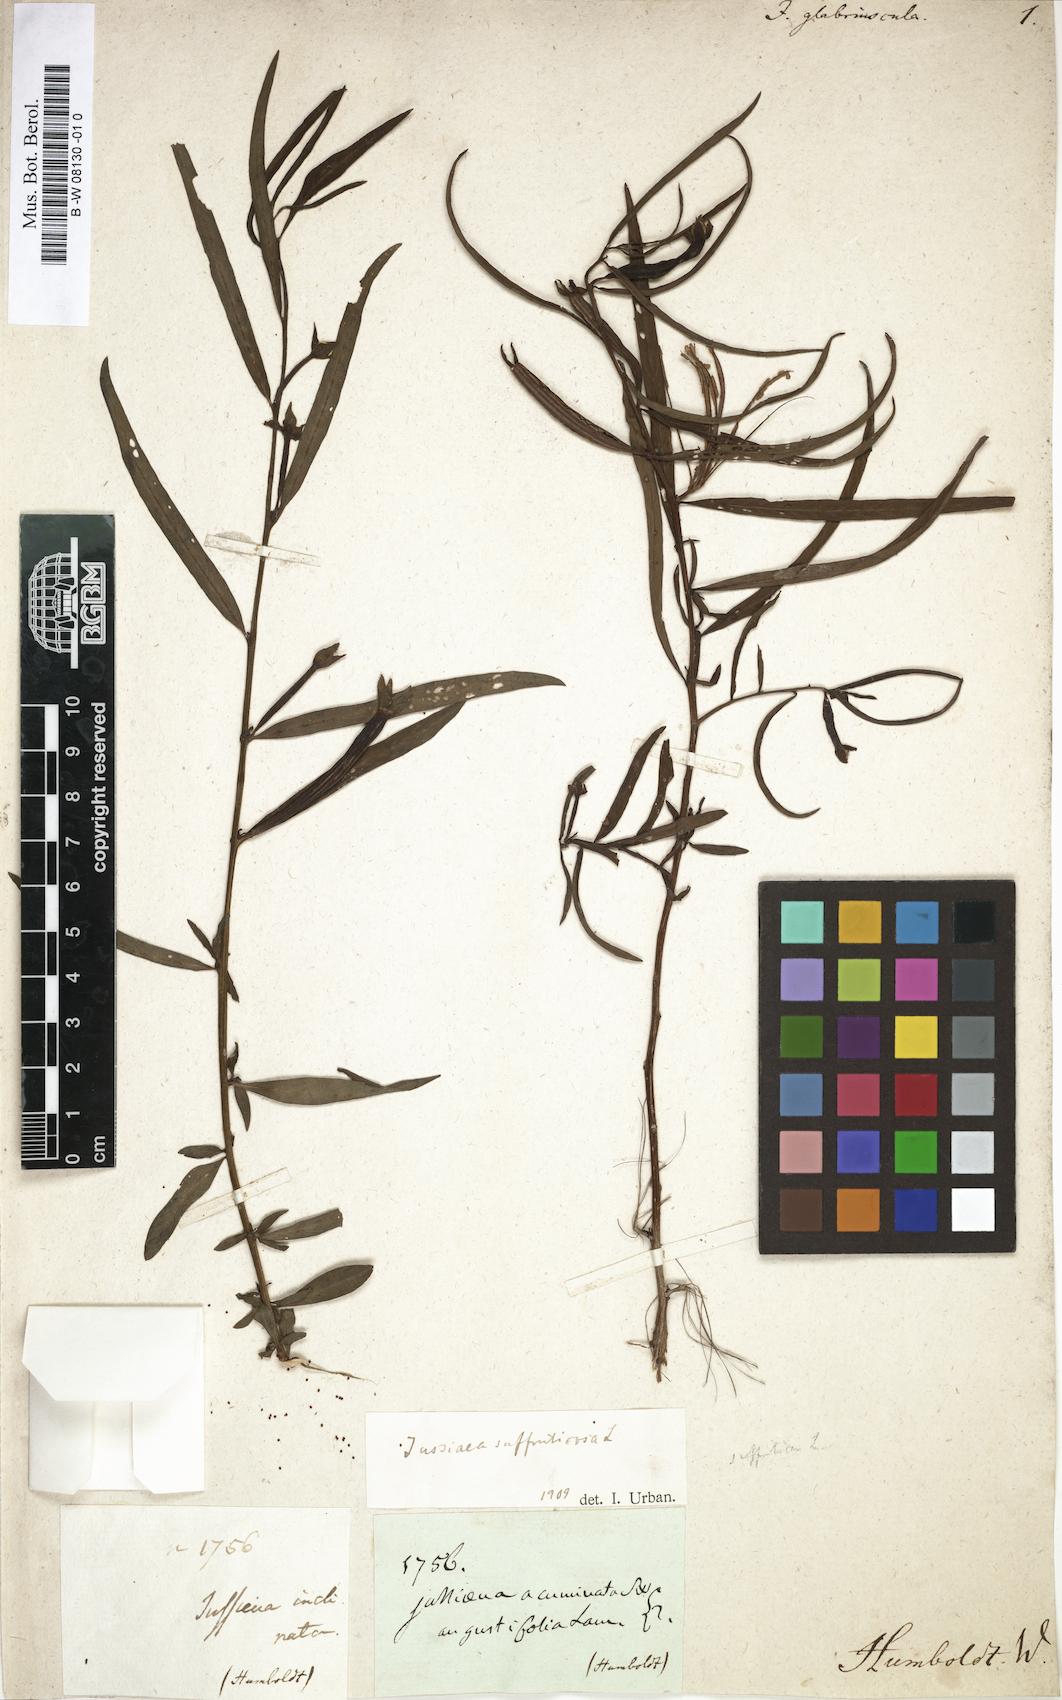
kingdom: Plantae
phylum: Tracheophyta
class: Magnoliopsida
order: Myrtales
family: Onagraceae
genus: Ludwigia
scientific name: Ludwigia
